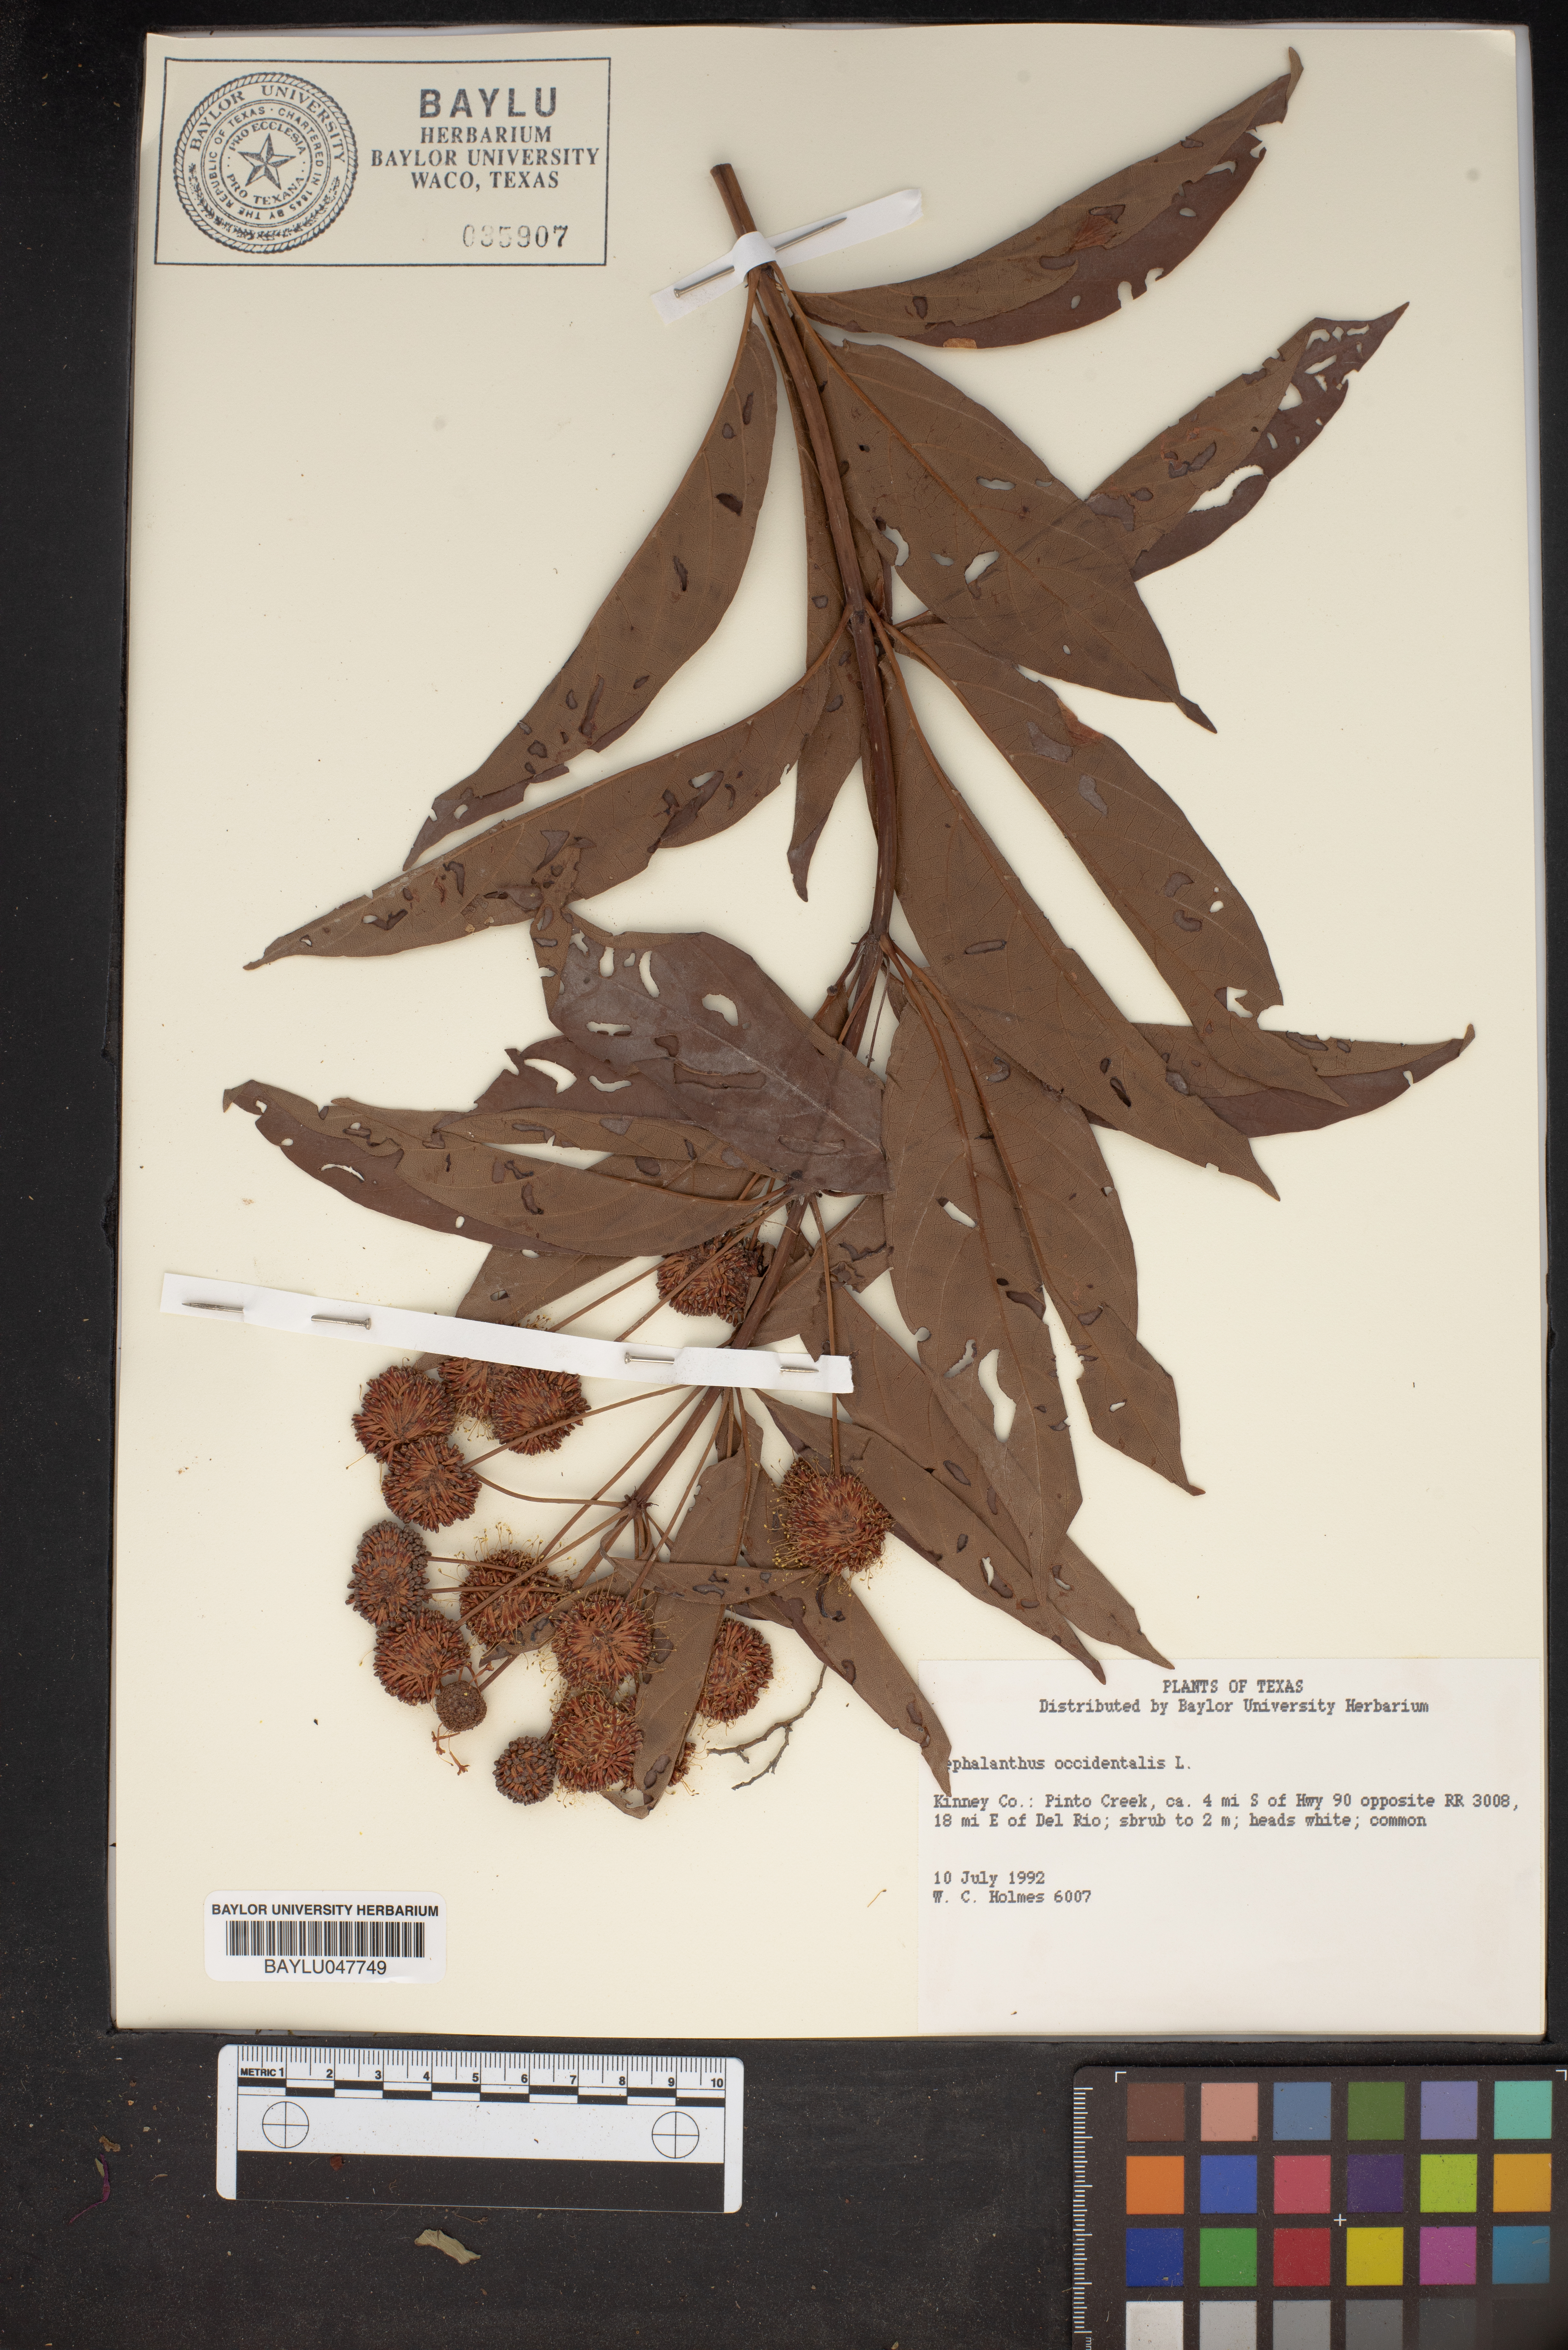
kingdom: Plantae
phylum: Tracheophyta
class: Magnoliopsida
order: Gentianales
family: Rubiaceae
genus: Cephalanthus
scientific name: Cephalanthus occidentalis
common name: Button-willow
